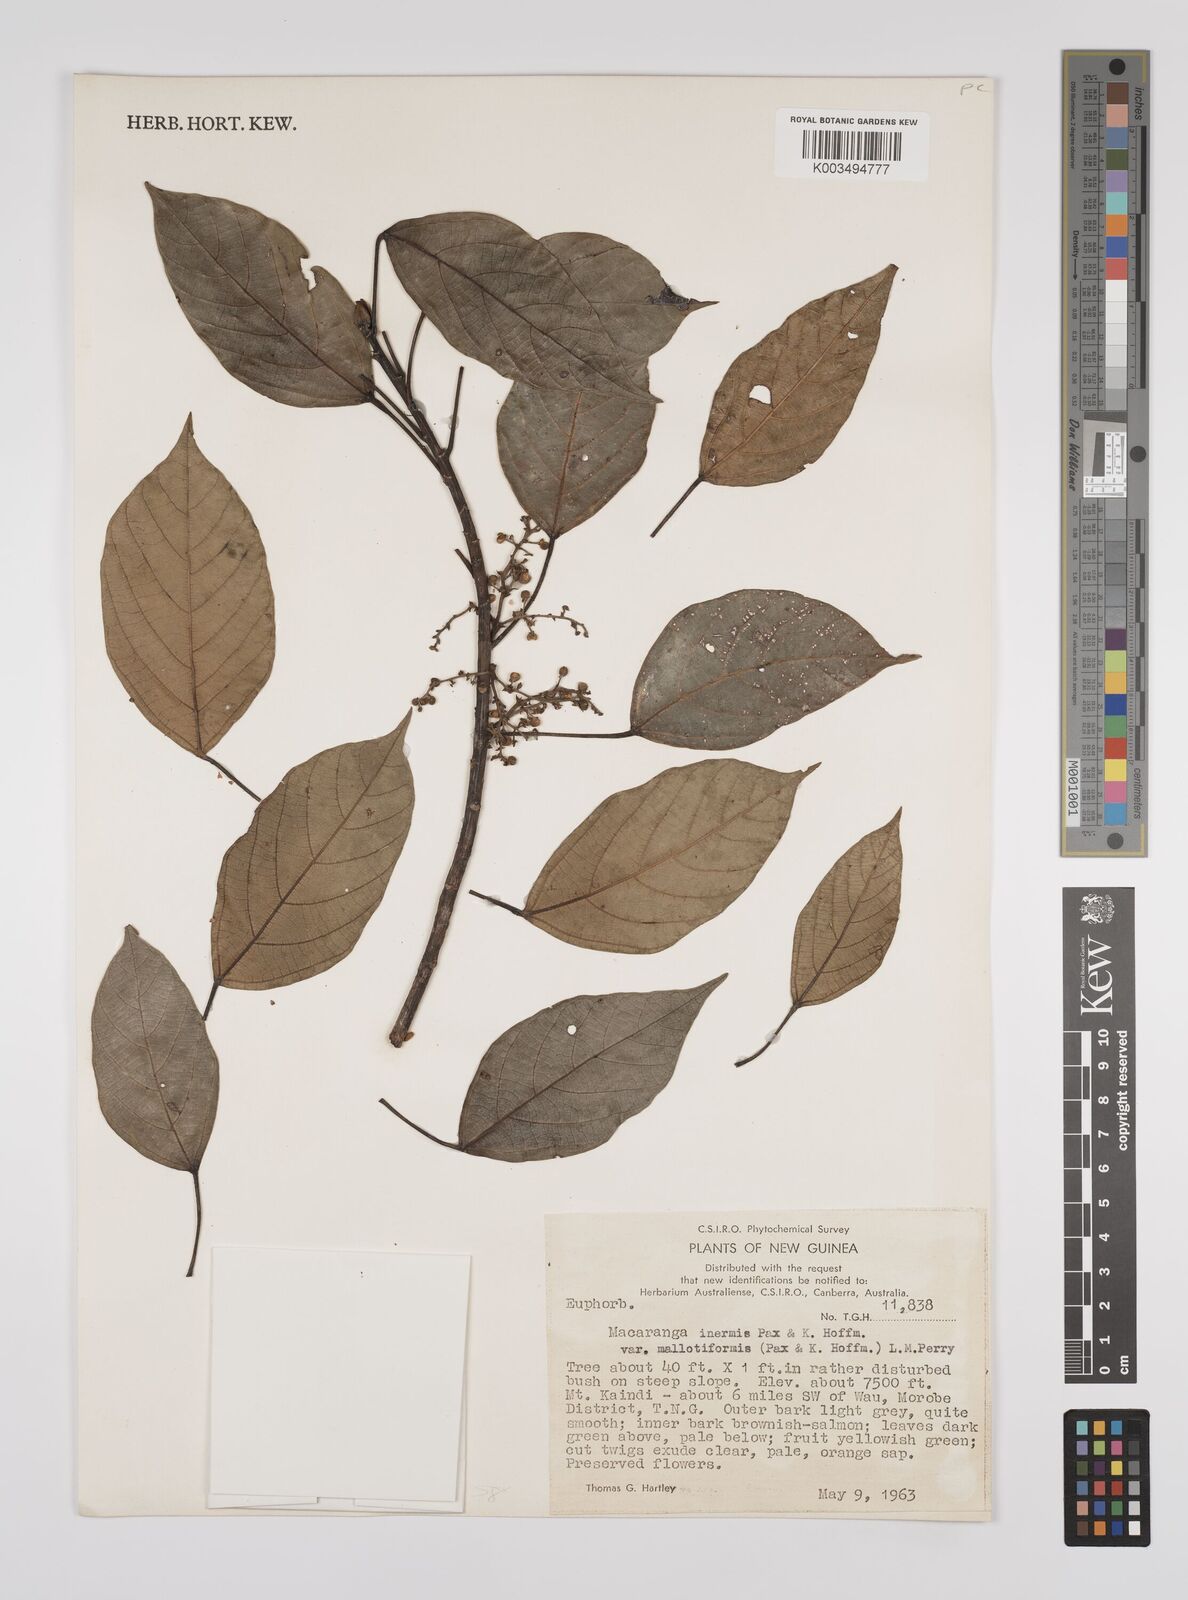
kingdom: Plantae
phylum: Tracheophyta
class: Magnoliopsida
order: Malpighiales
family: Euphorbiaceae
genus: Macaranga
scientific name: Macaranga inermis
